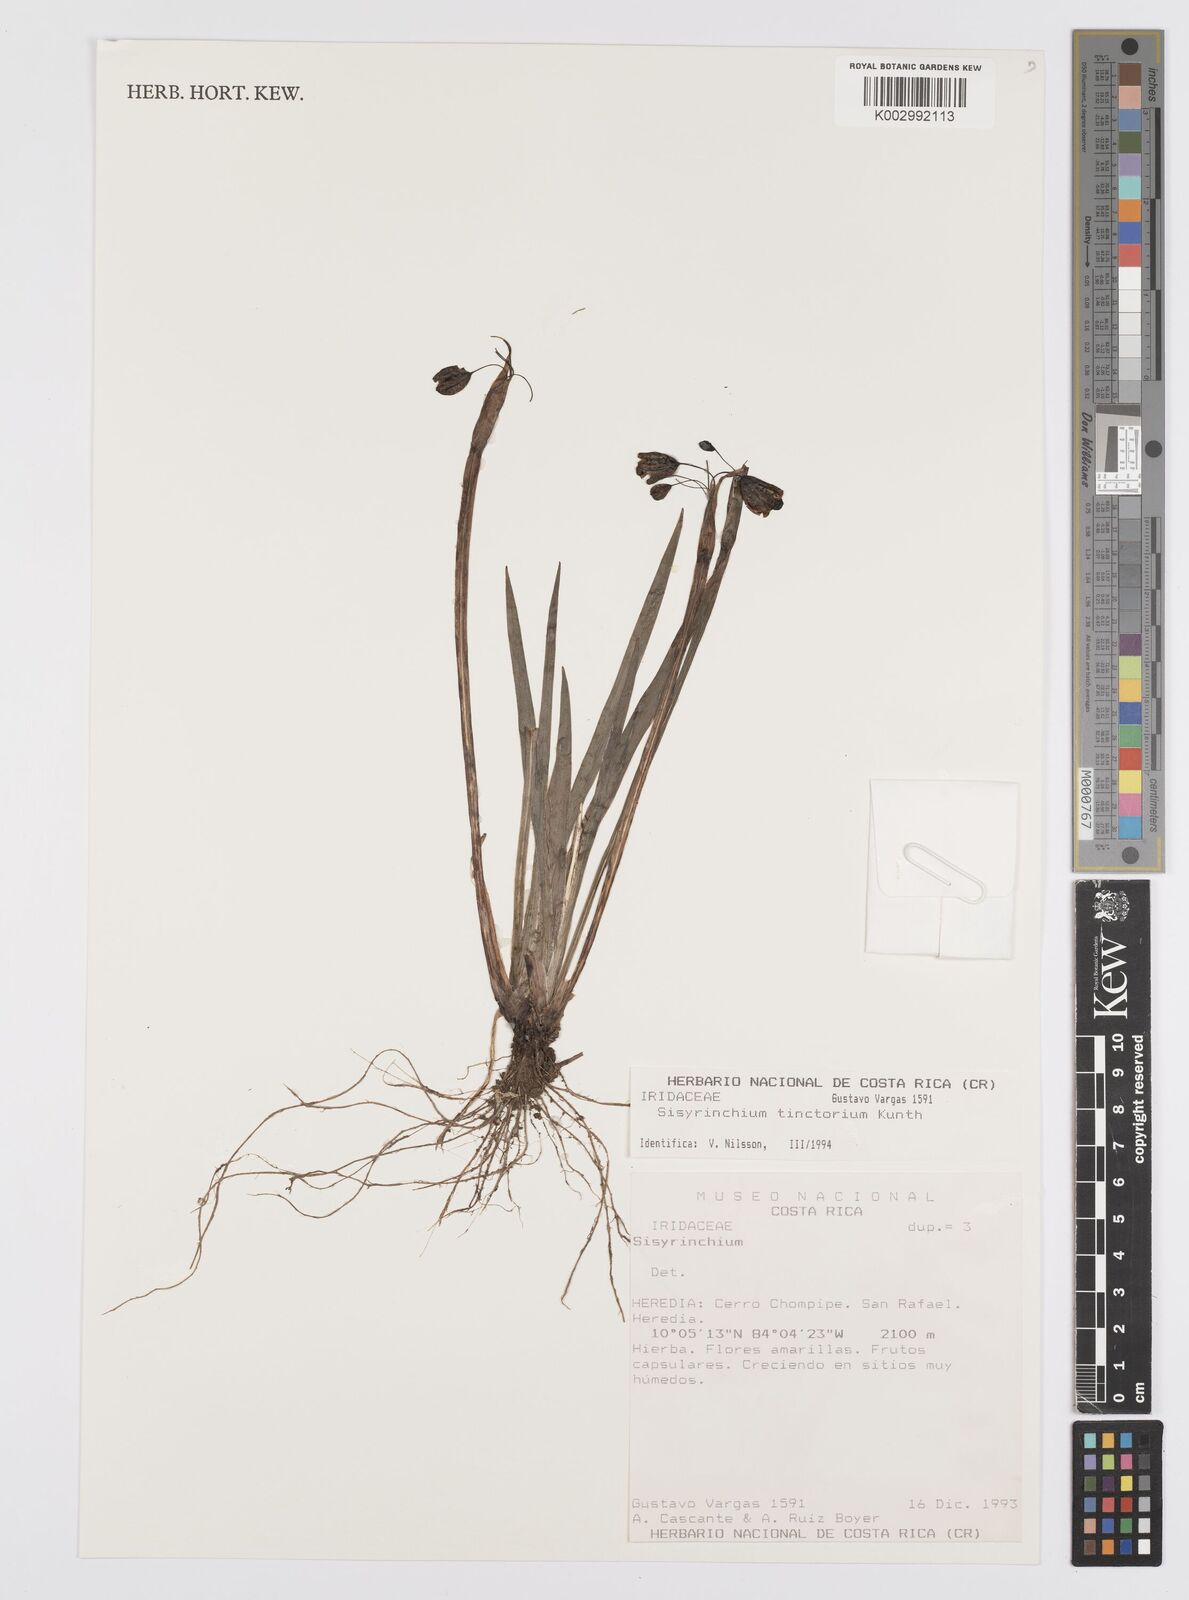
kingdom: Plantae
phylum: Tracheophyta
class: Liliopsida
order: Asparagales
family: Iridaceae
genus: Sisyrinchium
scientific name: Sisyrinchium tinctorium
